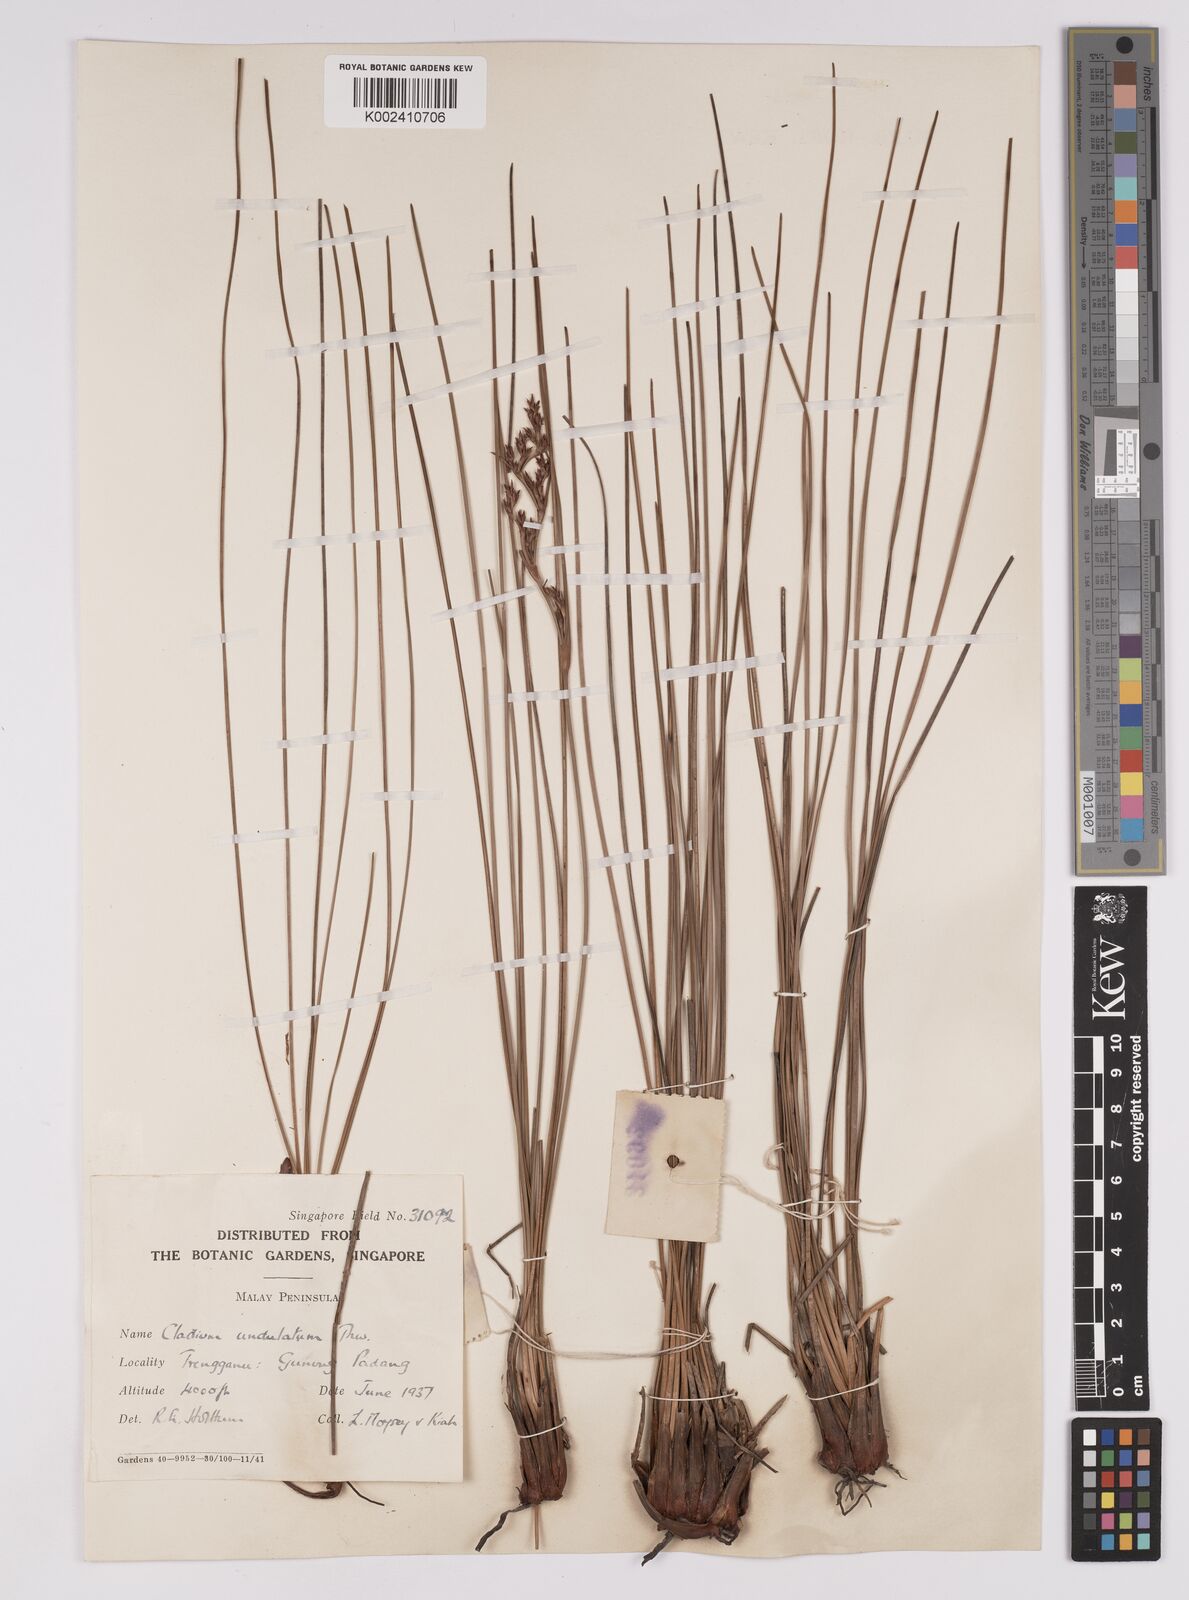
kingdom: Plantae
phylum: Tracheophyta
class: Liliopsida
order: Poales
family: Cyperaceae
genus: Anthelepis
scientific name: Anthelepis undulata
